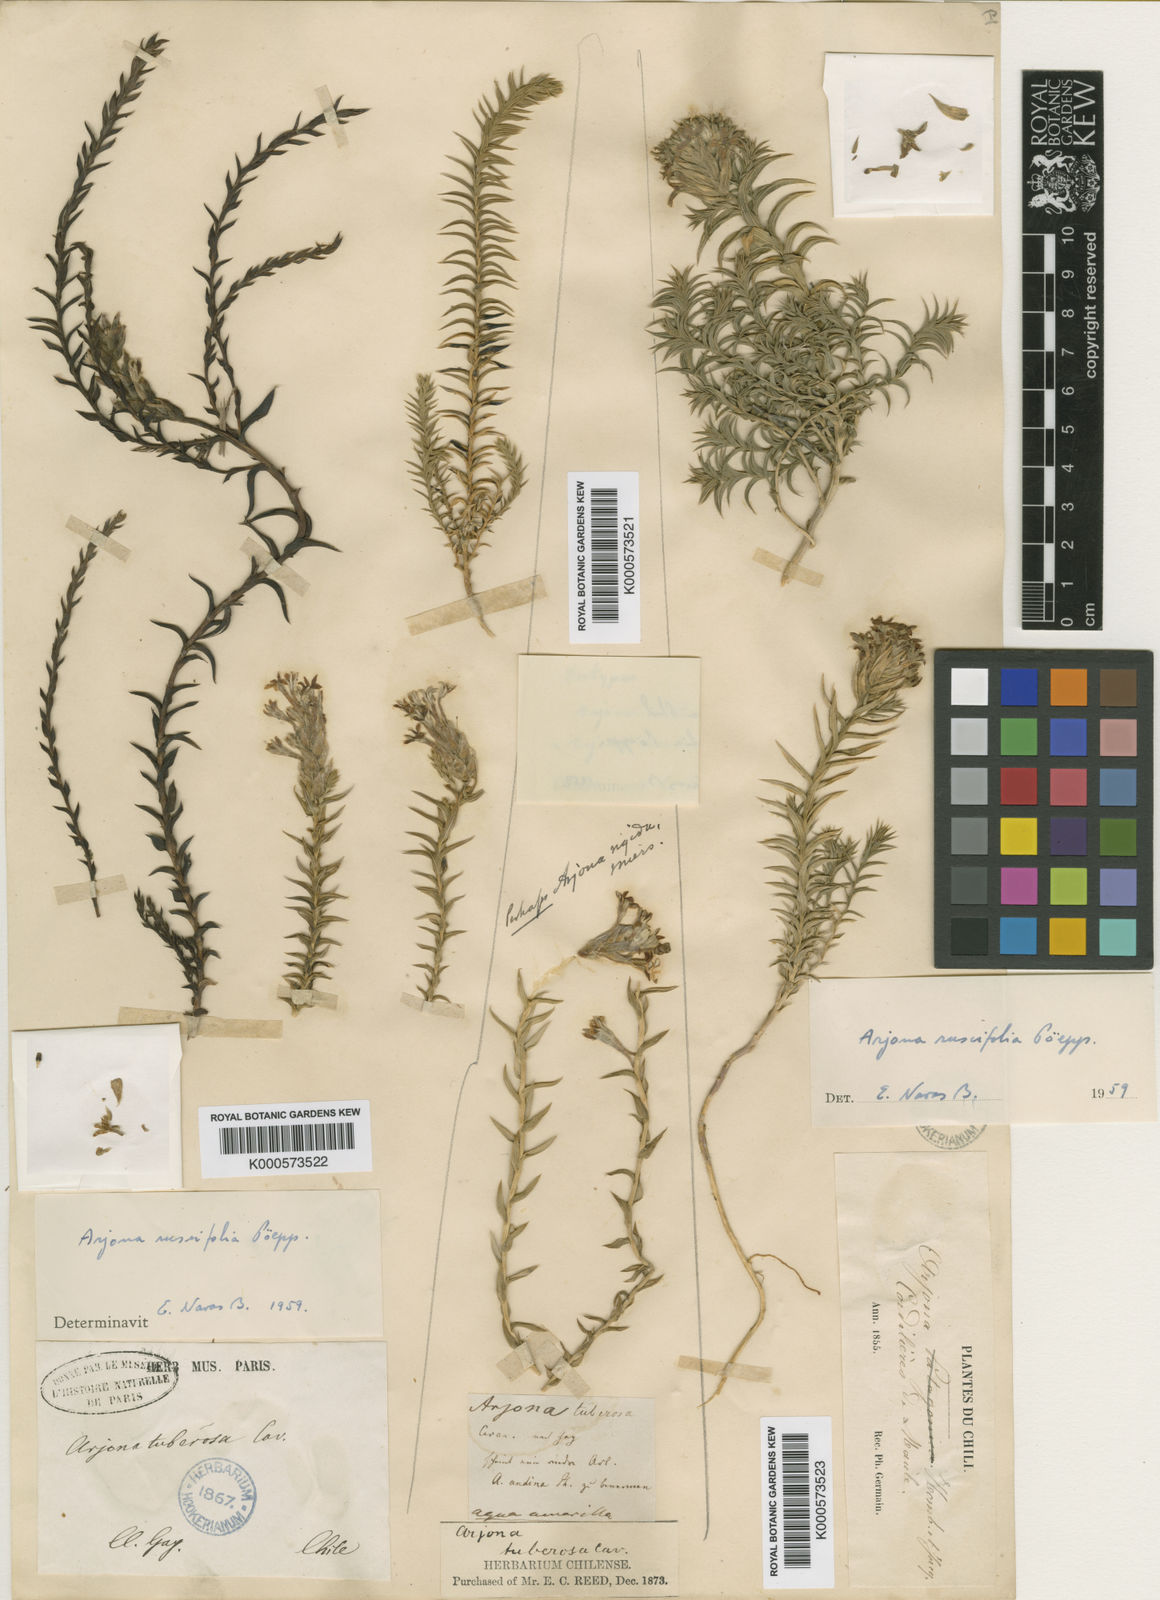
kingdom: Plantae
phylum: Tracheophyta
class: Magnoliopsida
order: Santalales
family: Schoepfiaceae
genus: Arjona
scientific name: Arjona patagonica
